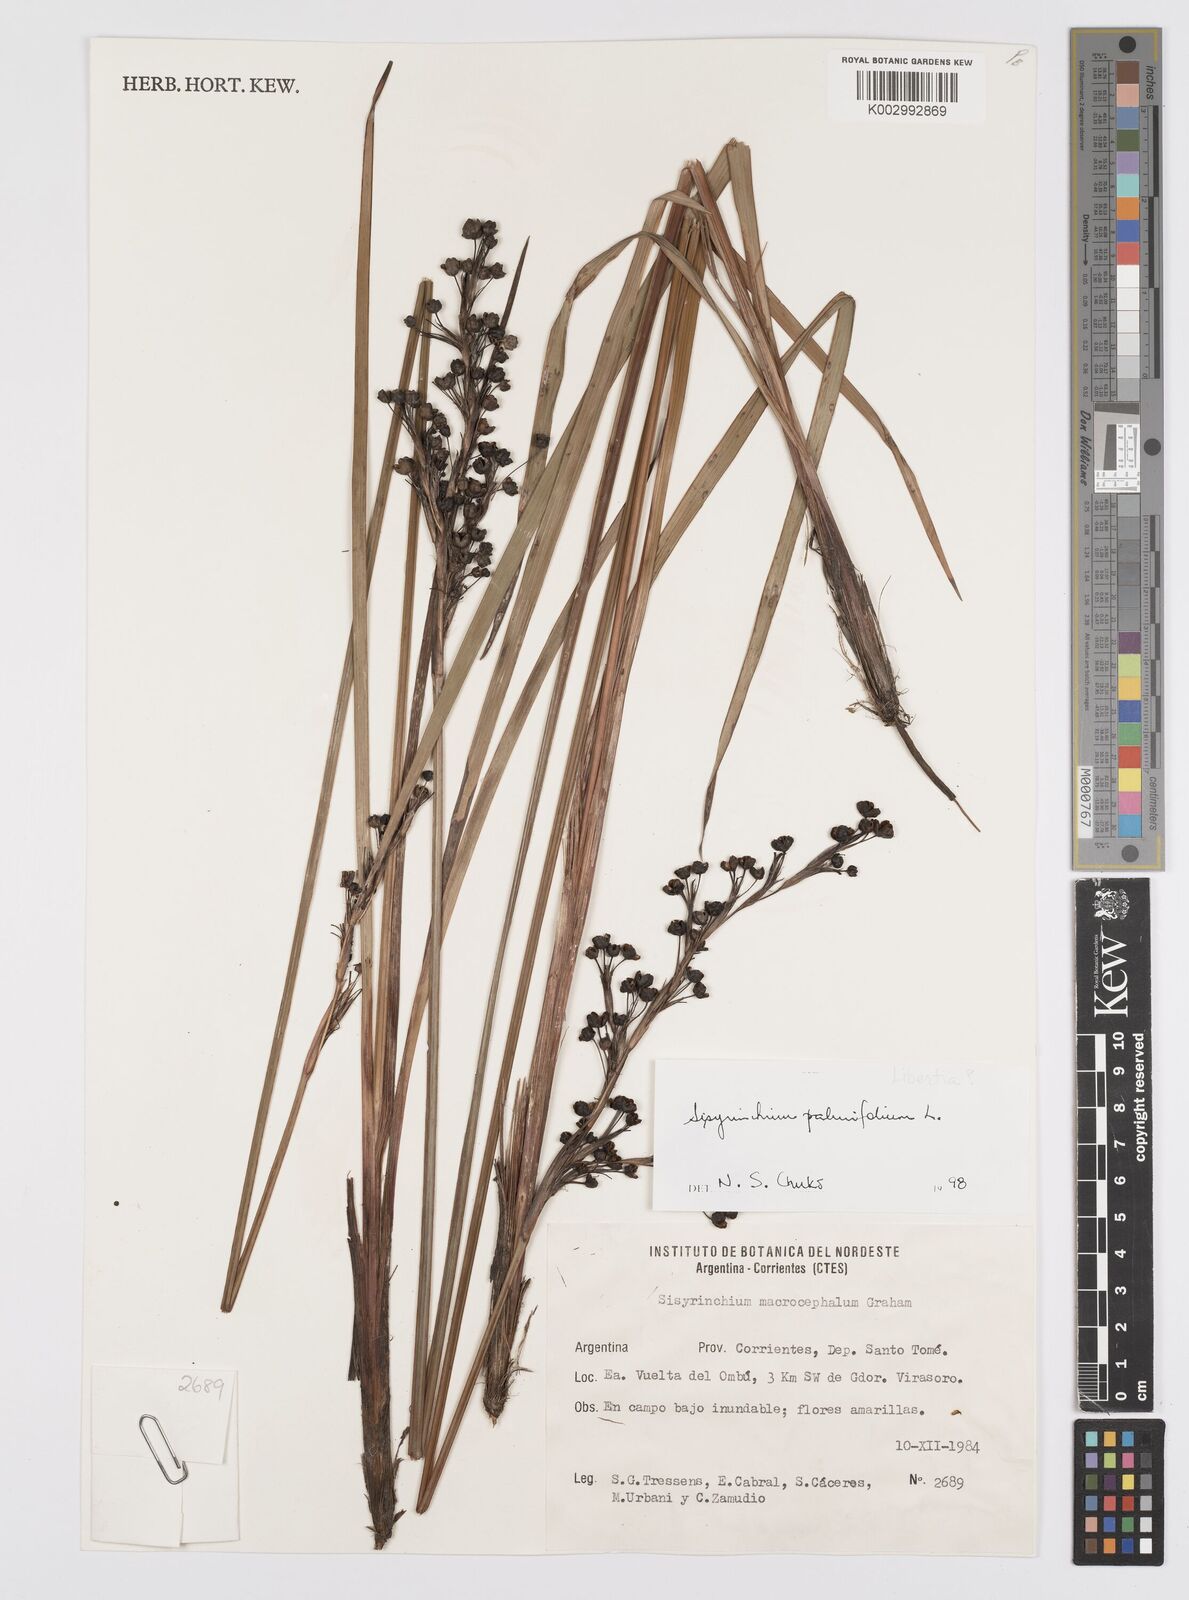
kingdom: Plantae
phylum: Tracheophyta
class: Liliopsida
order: Asparagales
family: Iridaceae
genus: Sisyrinchium
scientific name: Sisyrinchium palmifolium
